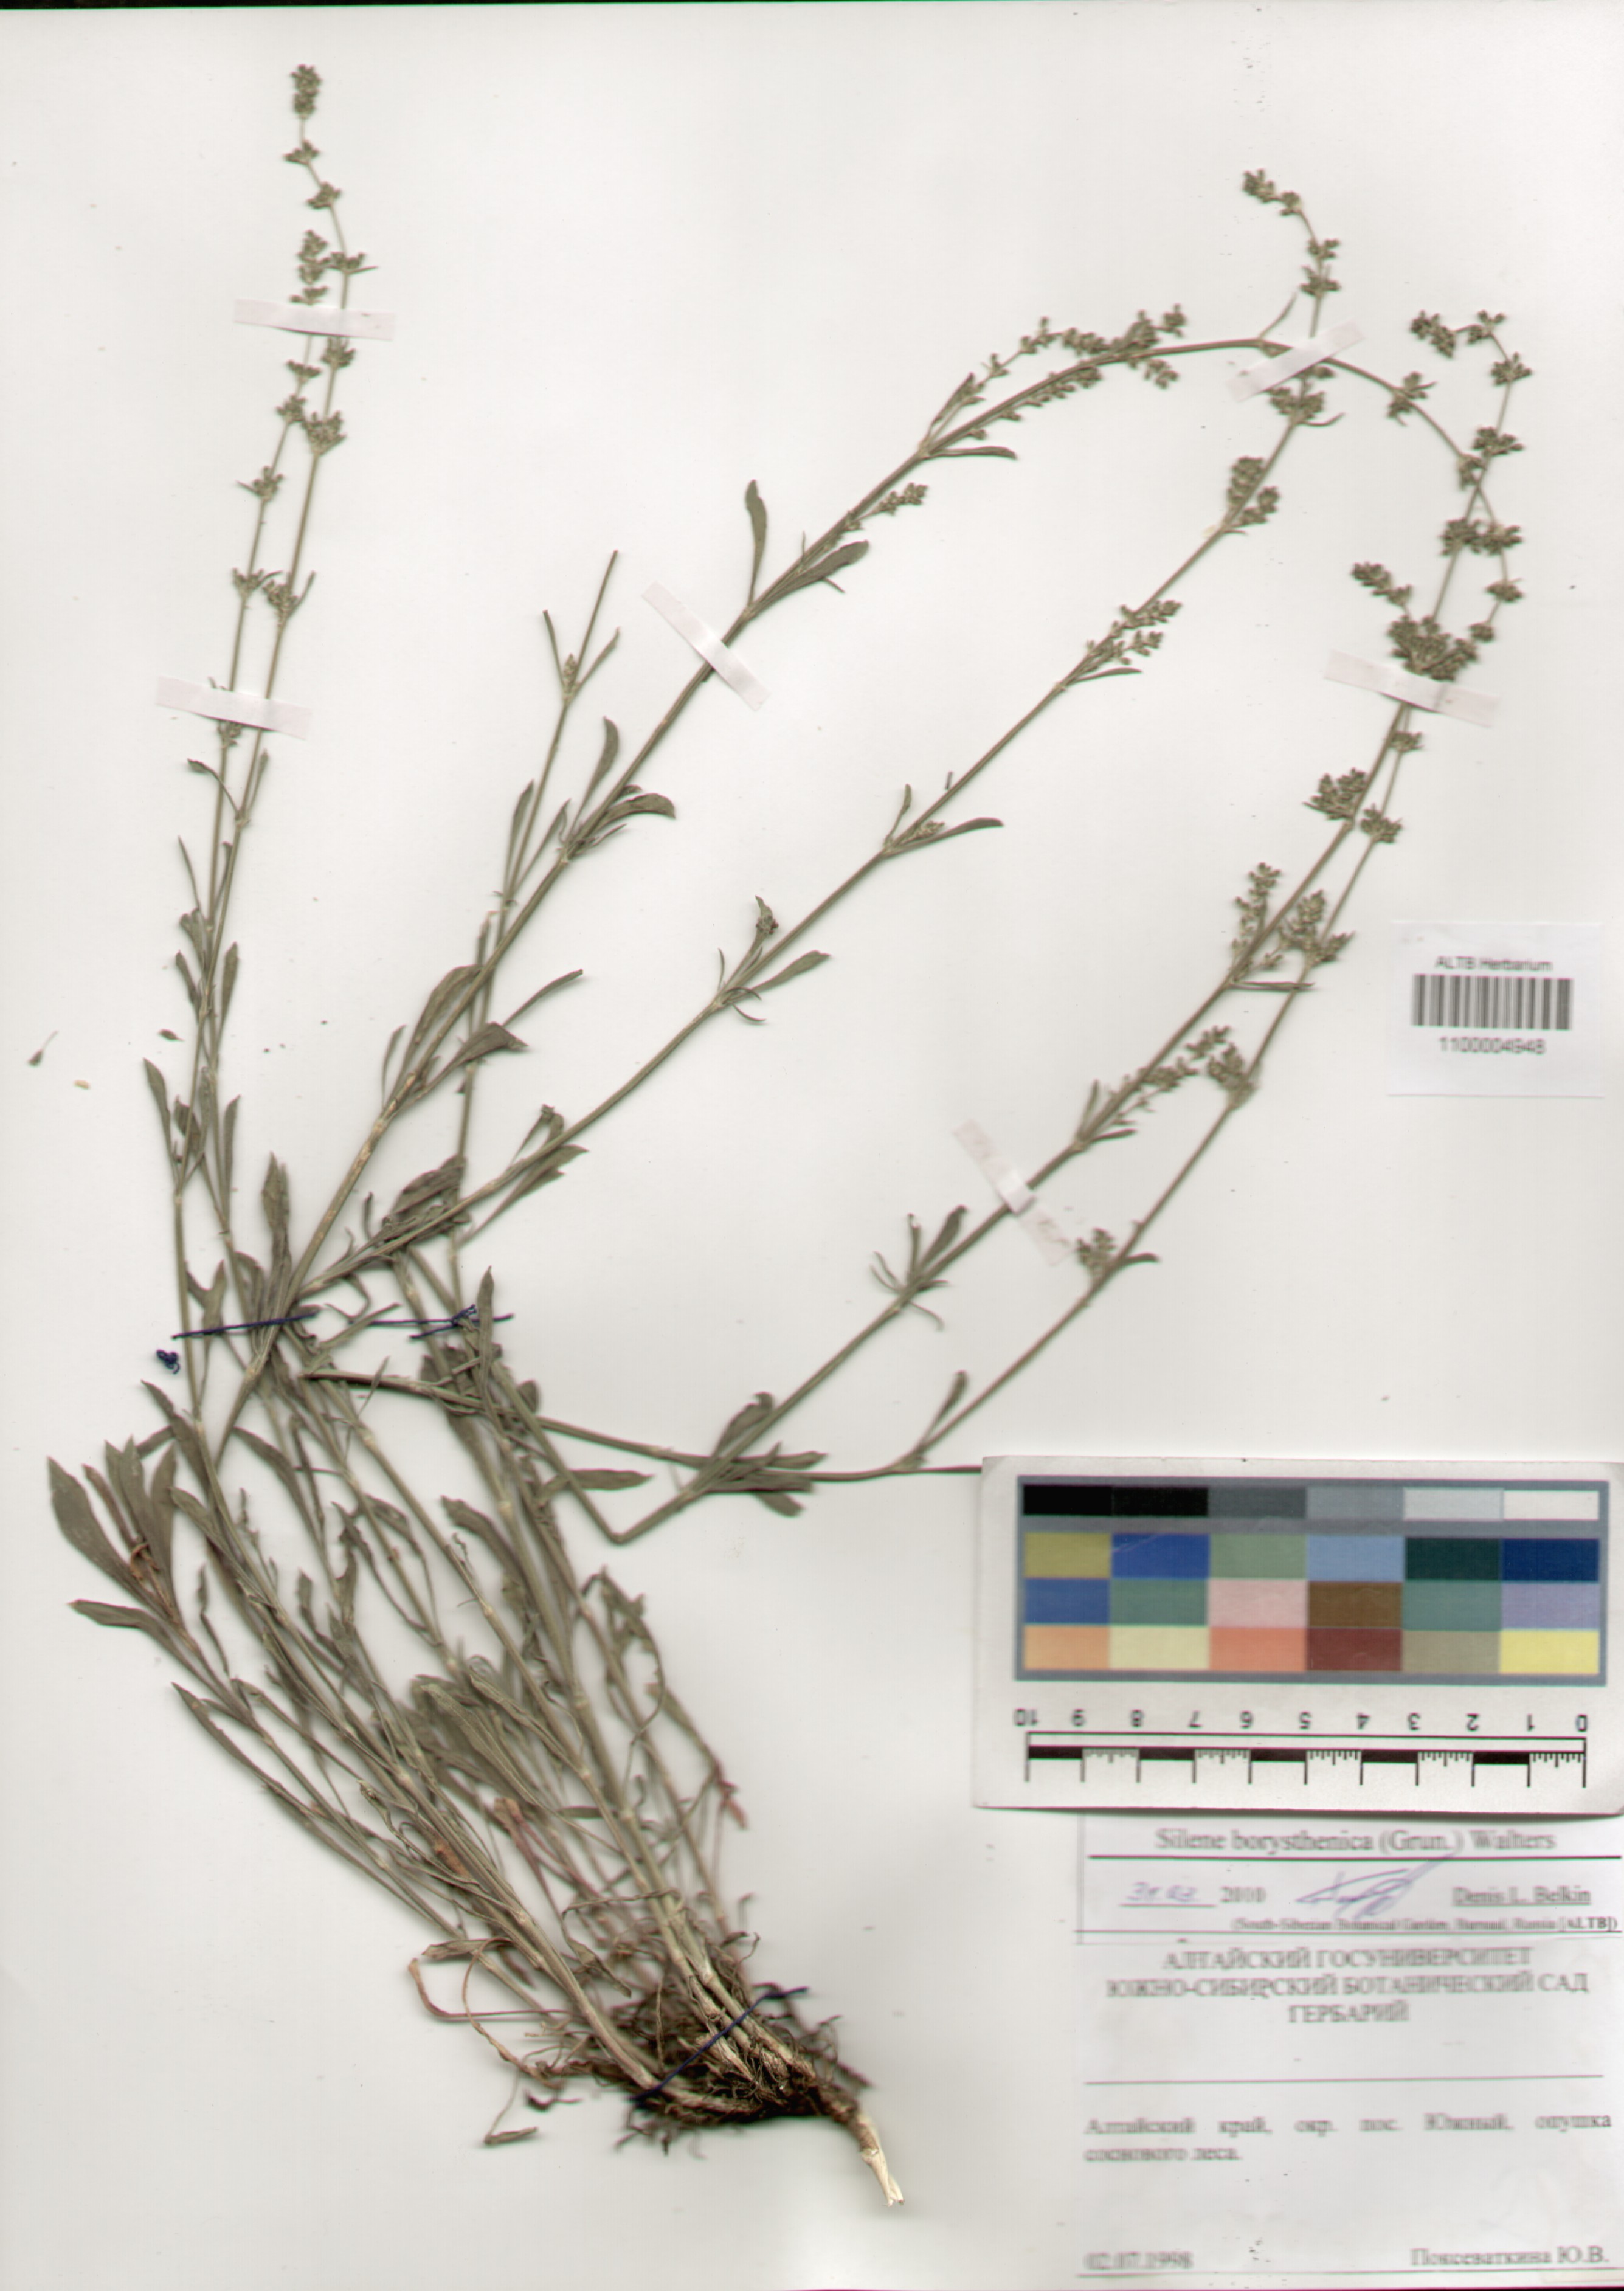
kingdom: Plantae
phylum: Tracheophyta
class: Magnoliopsida
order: Caryophyllales
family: Caryophyllaceae
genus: Silene
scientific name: Silene borysthenica
